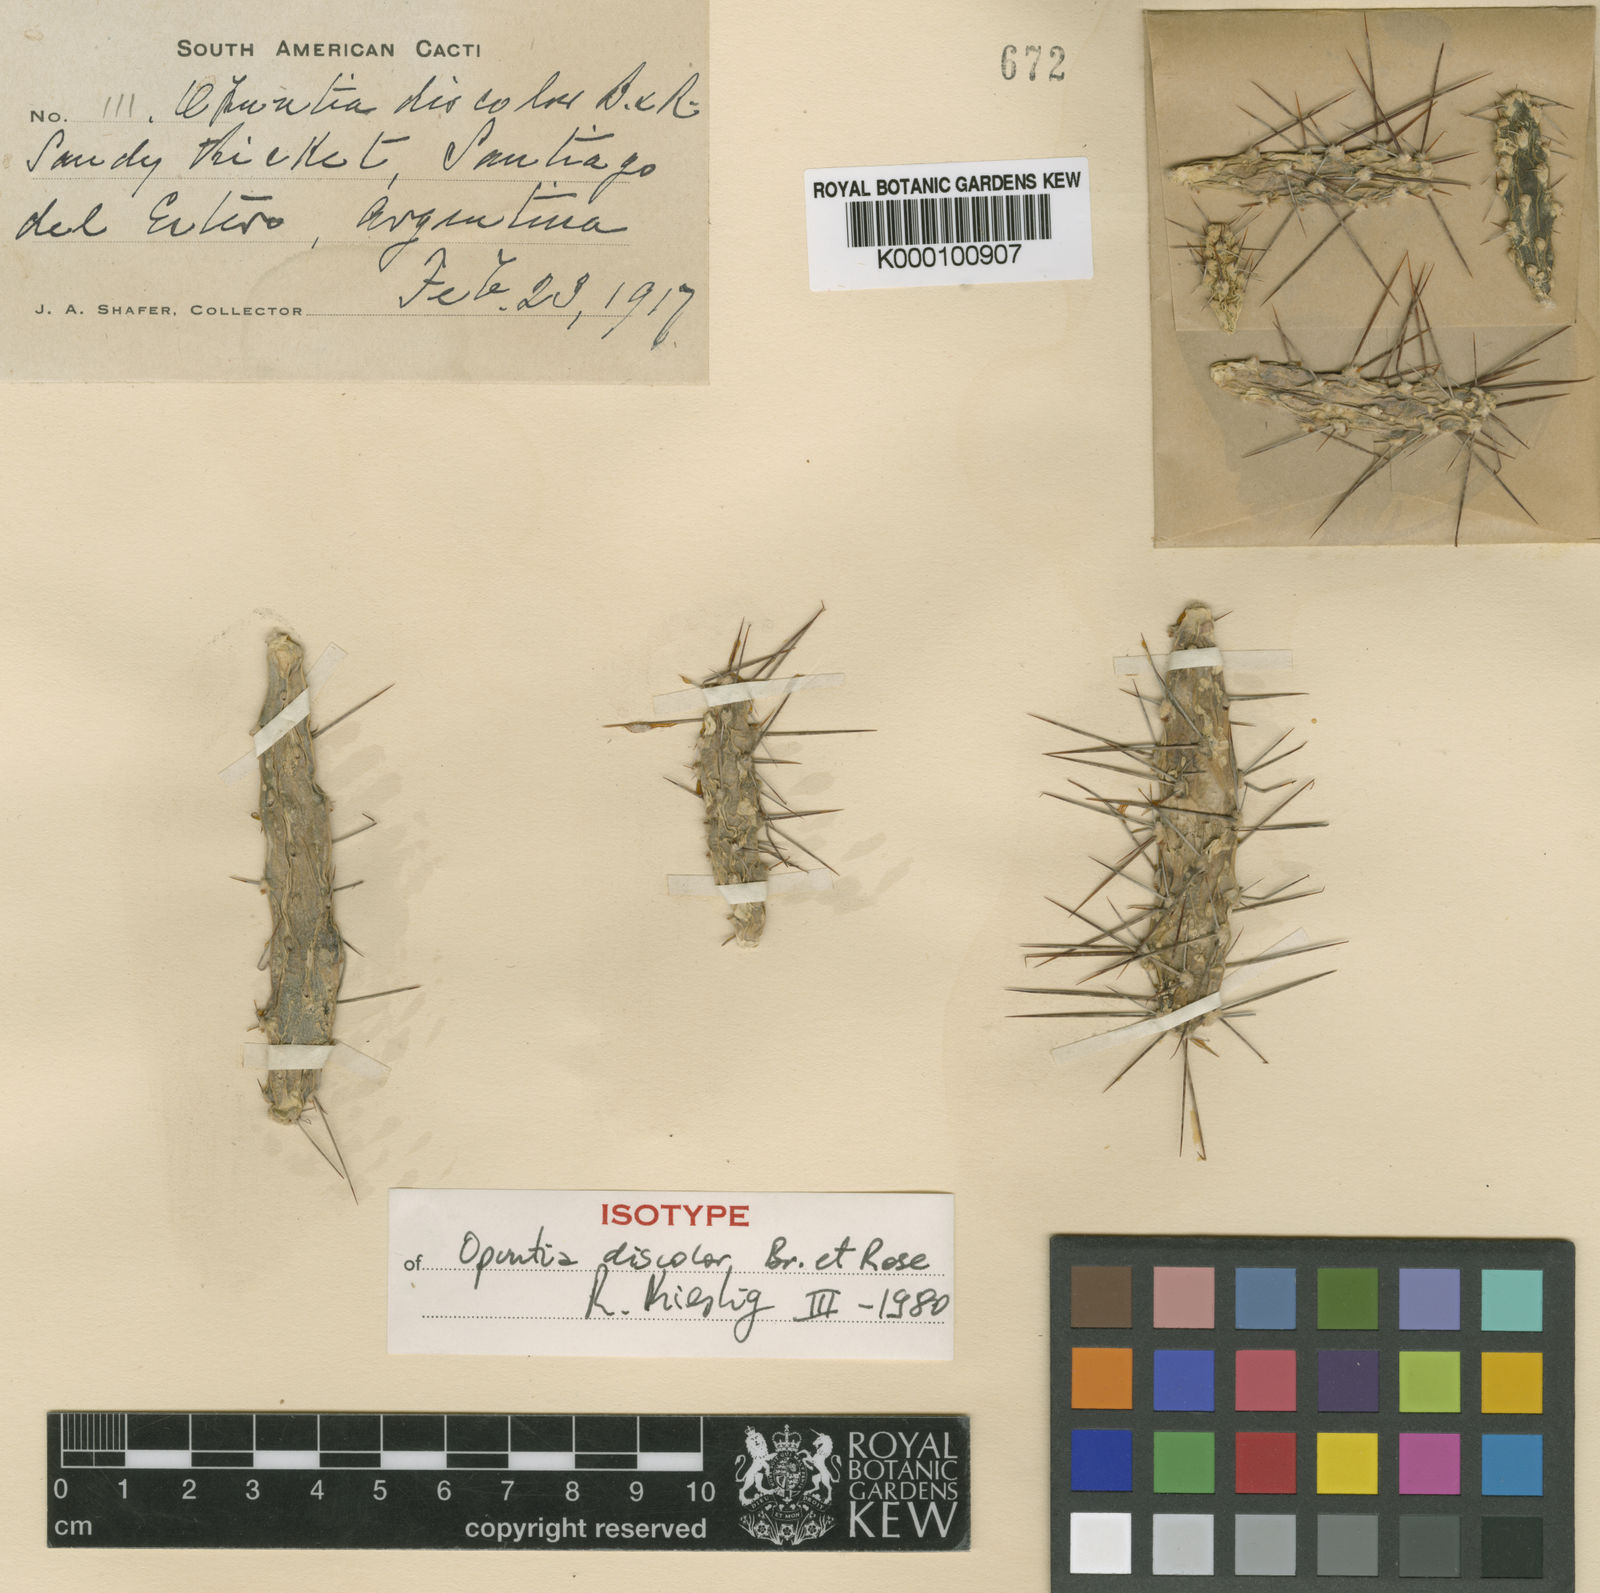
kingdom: Plantae
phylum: Tracheophyta
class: Magnoliopsida
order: Caryophyllales
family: Cactaceae
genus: Opuntia
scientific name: Opuntia discolor
